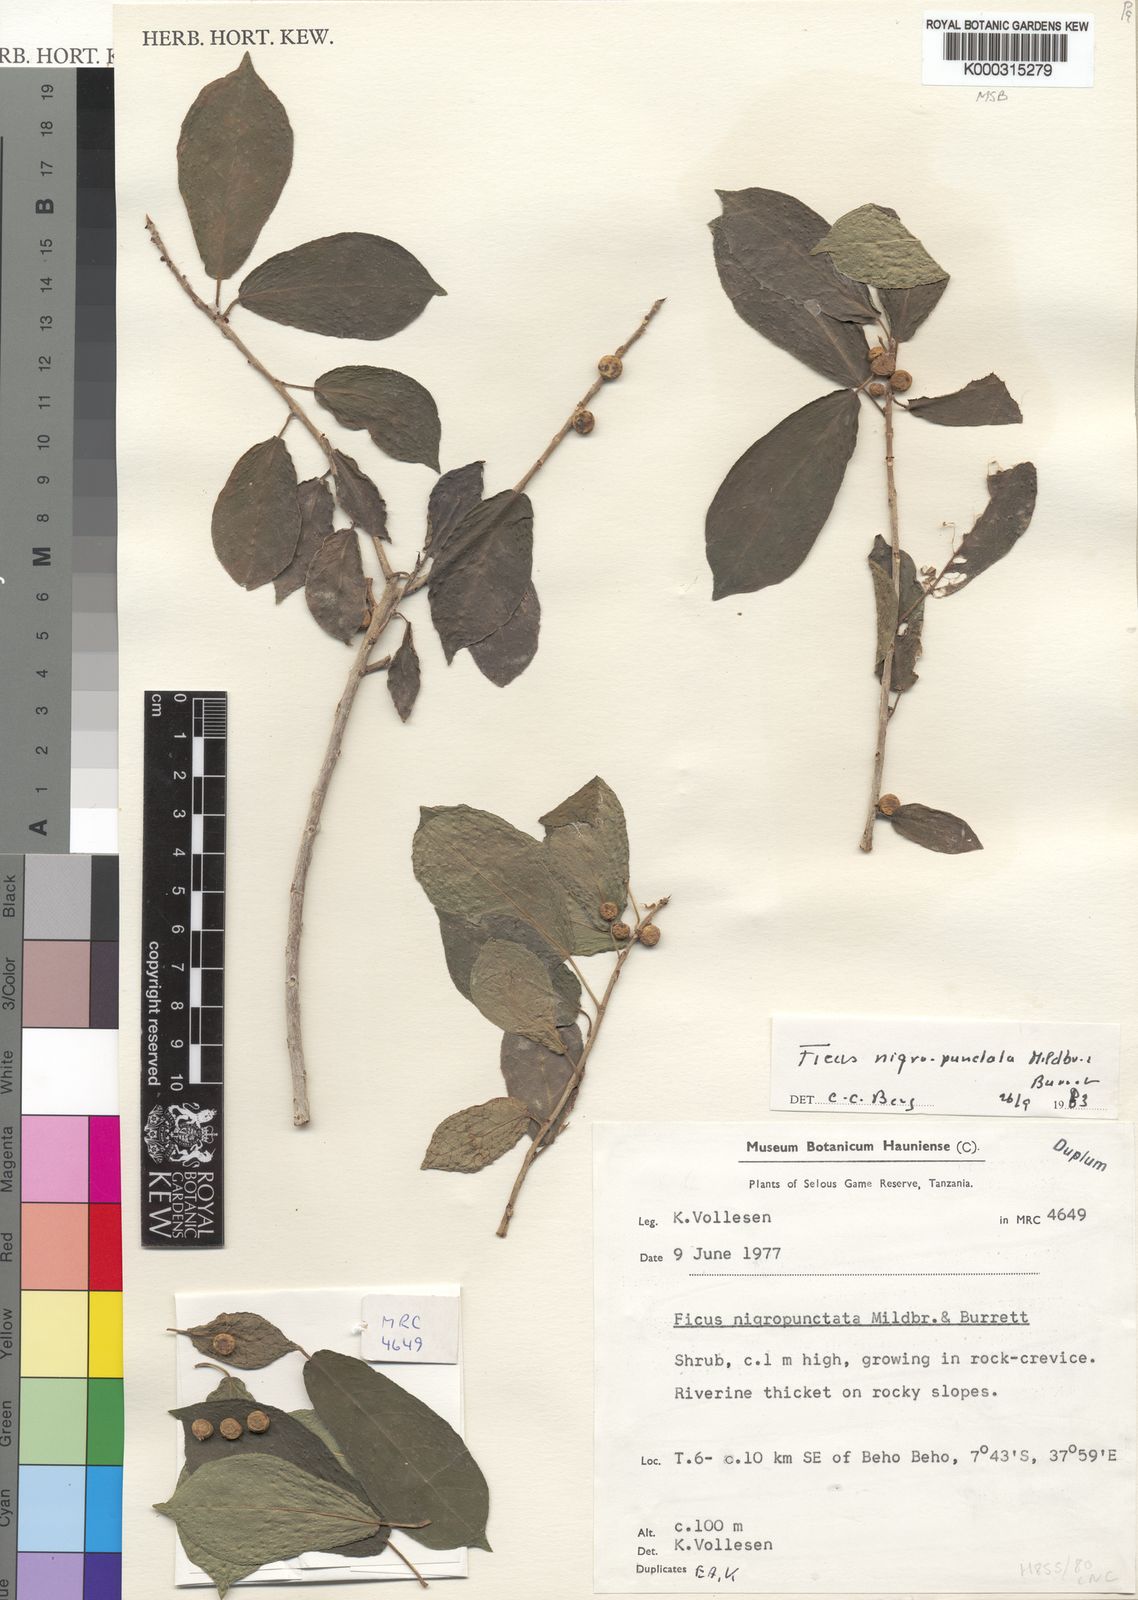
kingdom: Plantae
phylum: Tracheophyta
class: Magnoliopsida
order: Rosales
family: Moraceae
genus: Ficus
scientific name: Ficus nigropunctata
